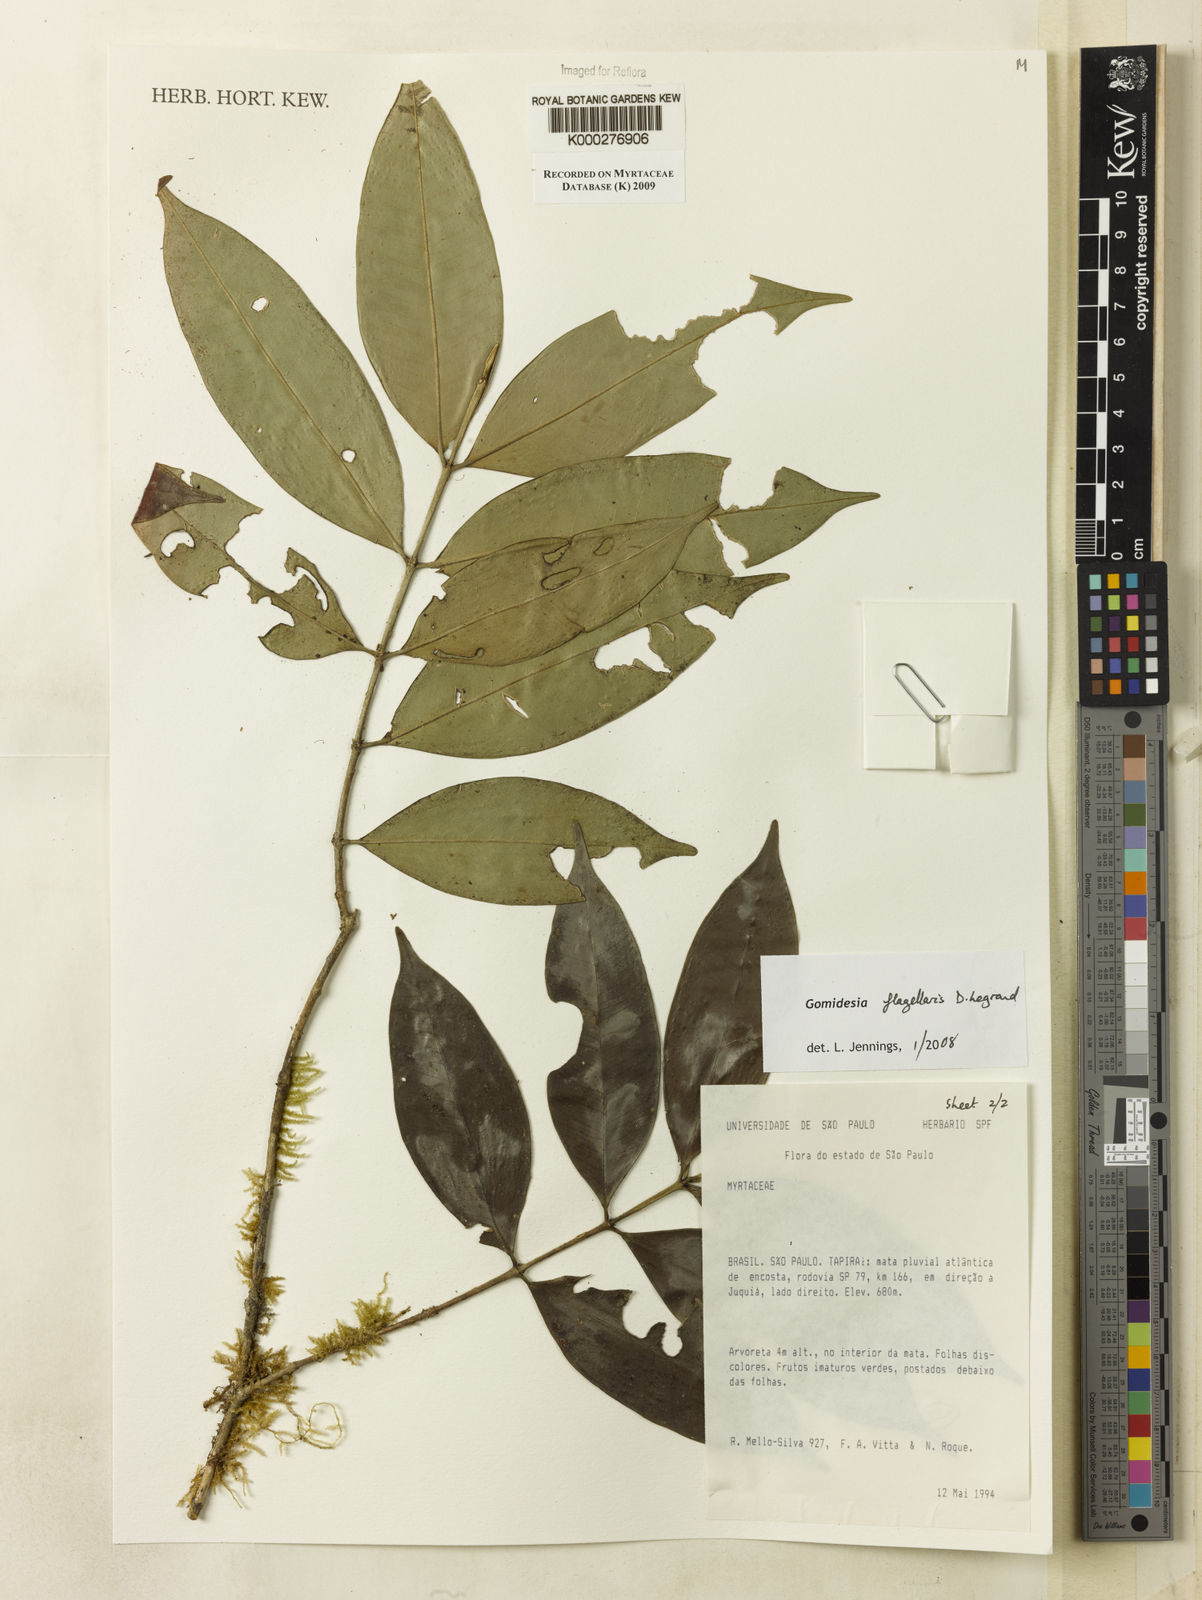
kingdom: Plantae
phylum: Tracheophyta
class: Magnoliopsida
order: Myrtales
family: Myrtaceae
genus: Myrcia
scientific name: Myrcia flagellaris
